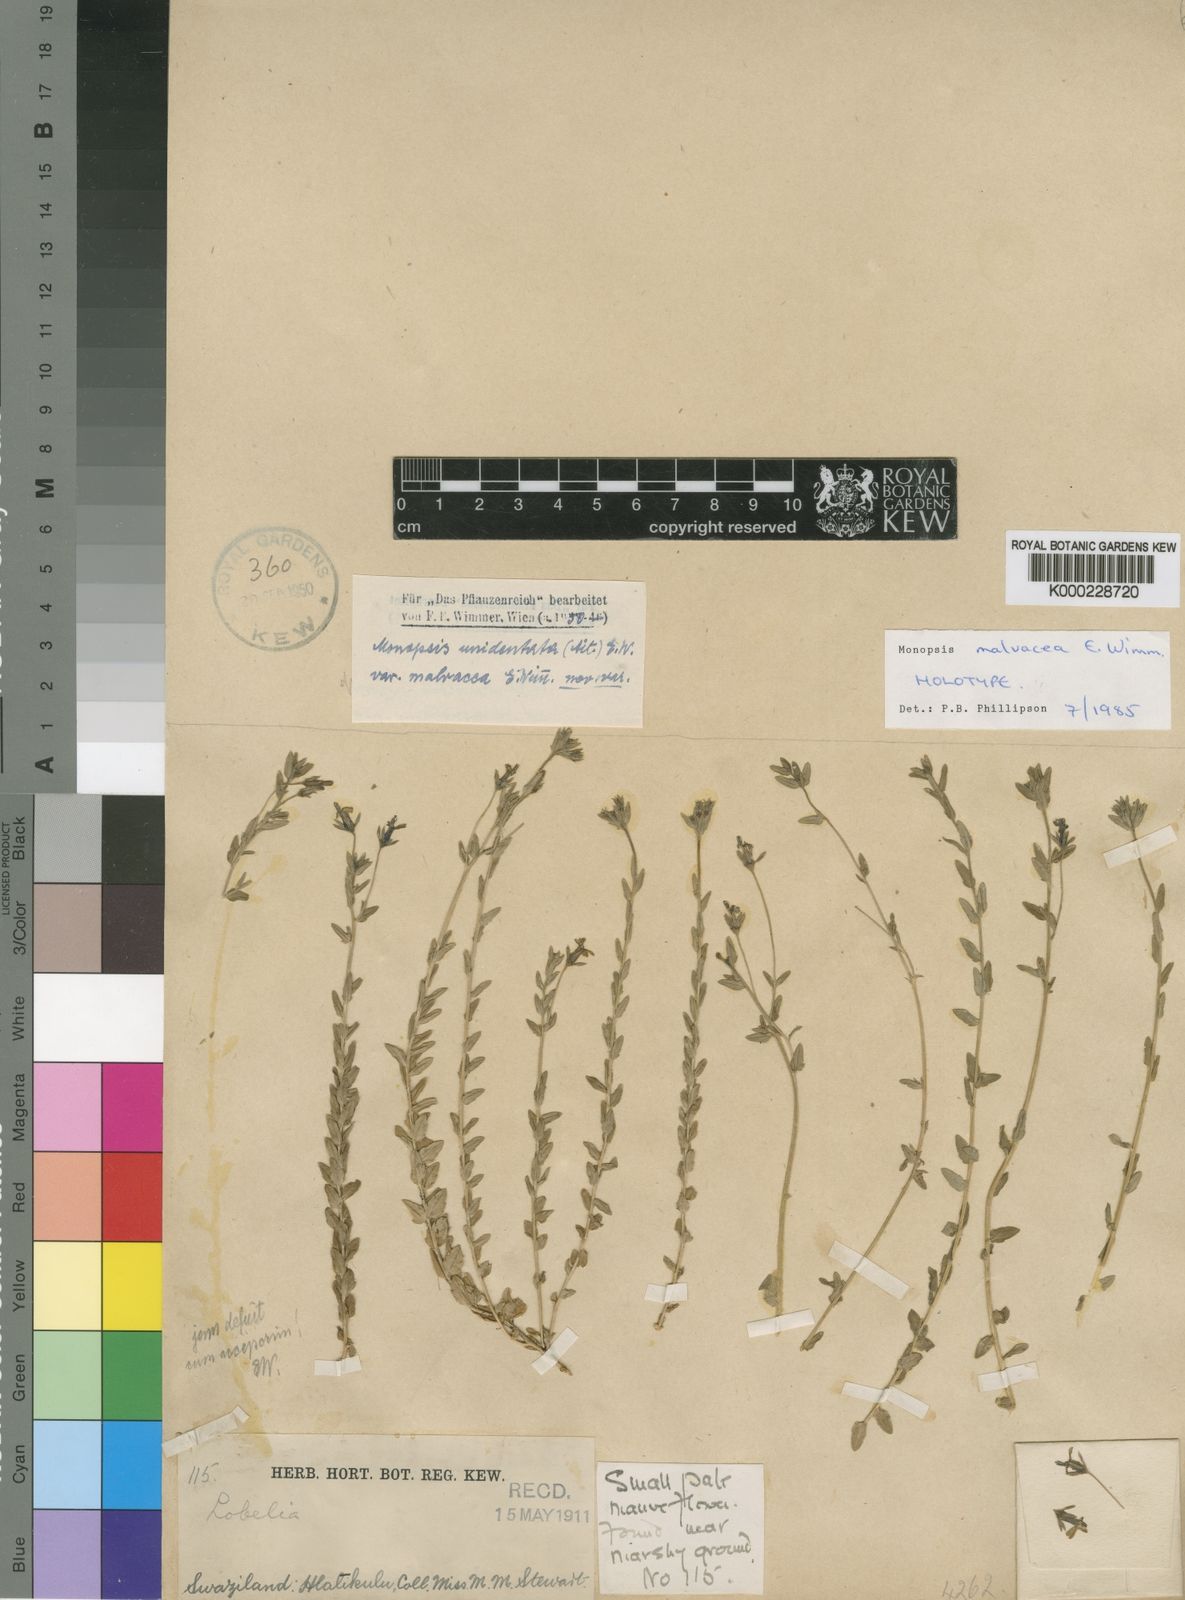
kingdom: Plantae
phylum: Tracheophyta
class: Magnoliopsida
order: Asterales
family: Campanulaceae
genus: Monopsis
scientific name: Monopsis malvacea
